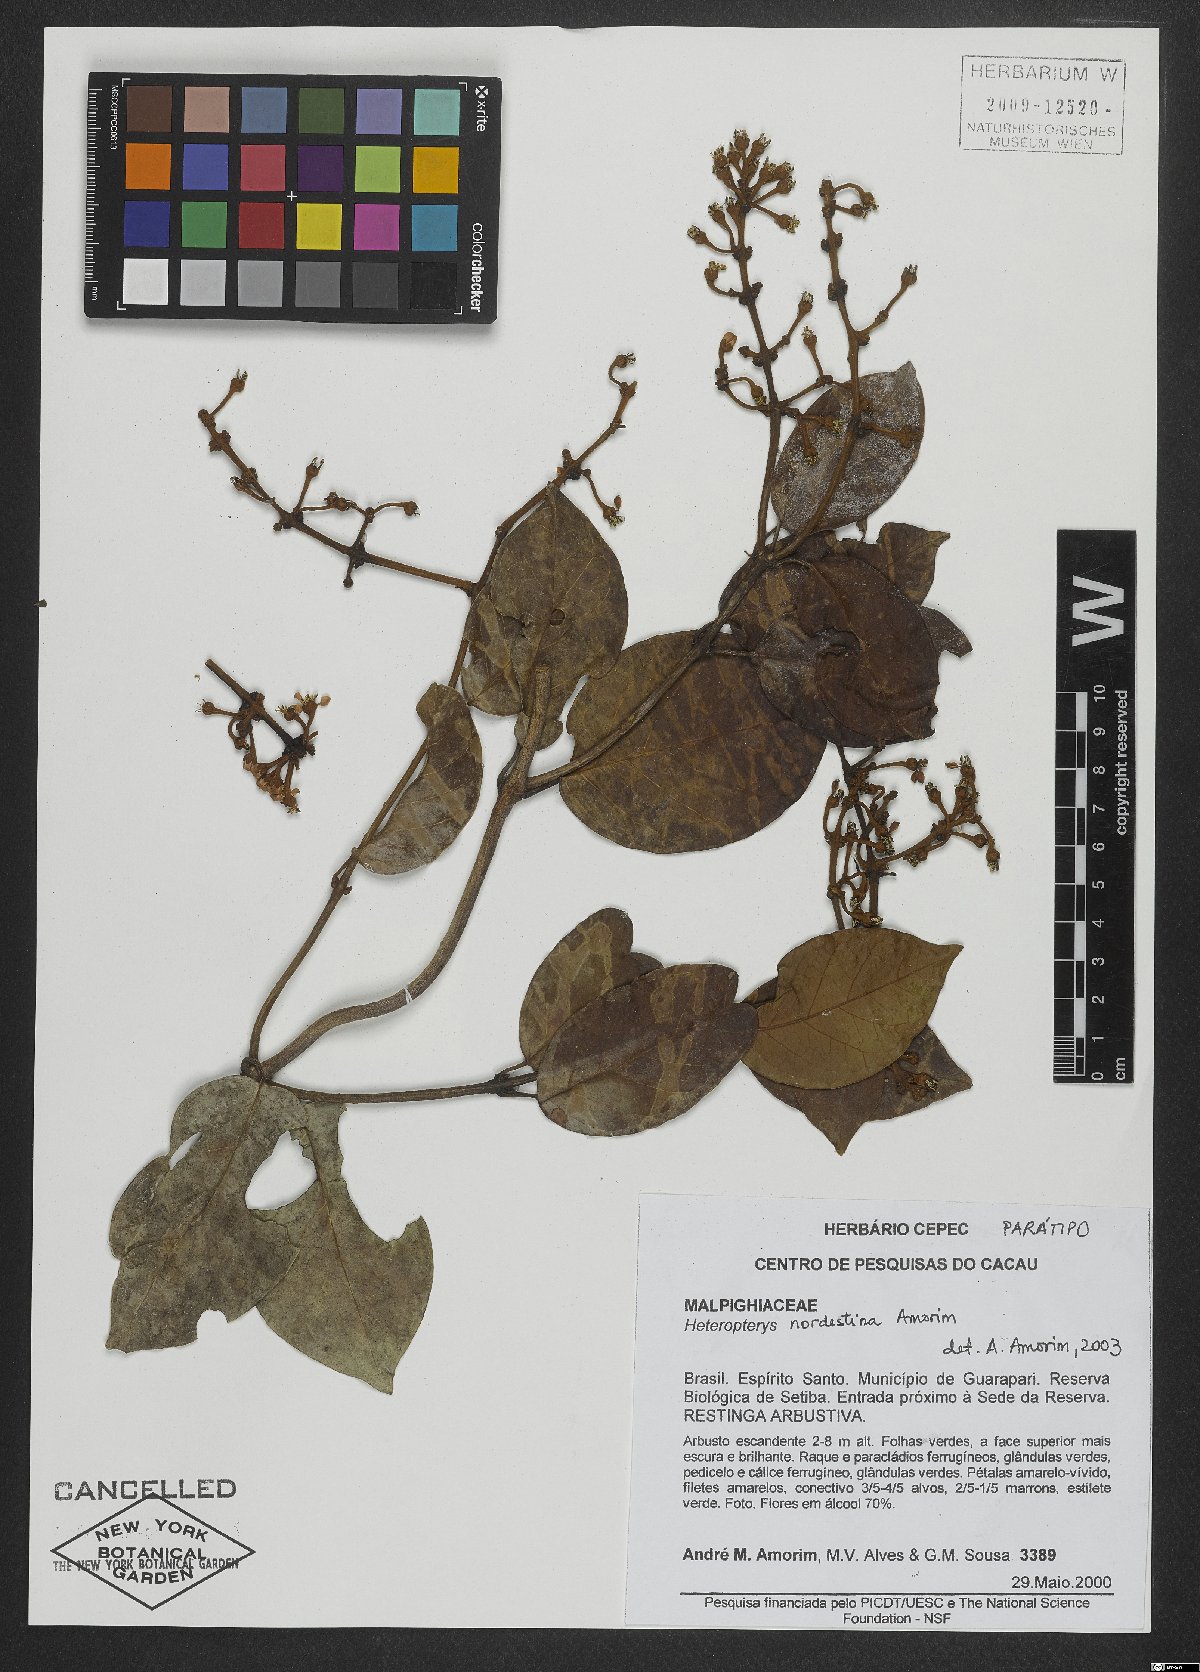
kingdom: Plantae
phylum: Tracheophyta
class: Magnoliopsida
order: Malpighiales
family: Malpighiaceae
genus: Heteropterys
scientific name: Heteropterys nordestina
